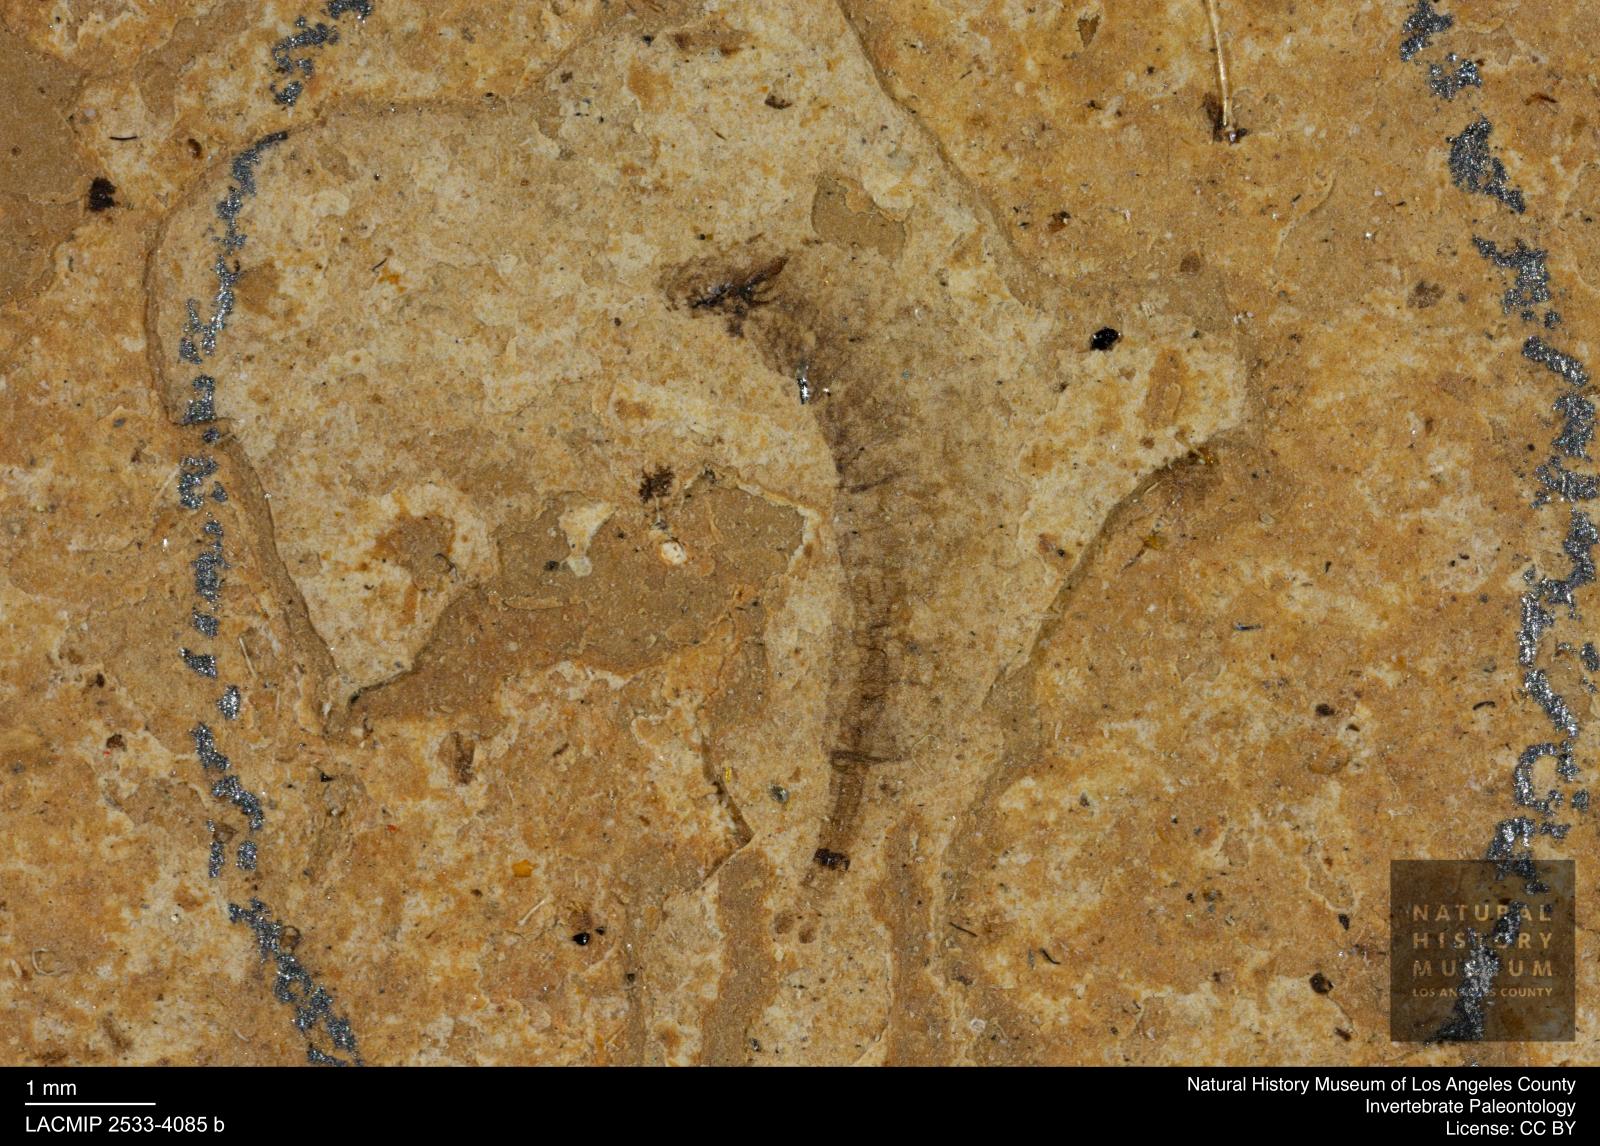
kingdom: Animalia
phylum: Arthropoda
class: Insecta
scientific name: Insecta
